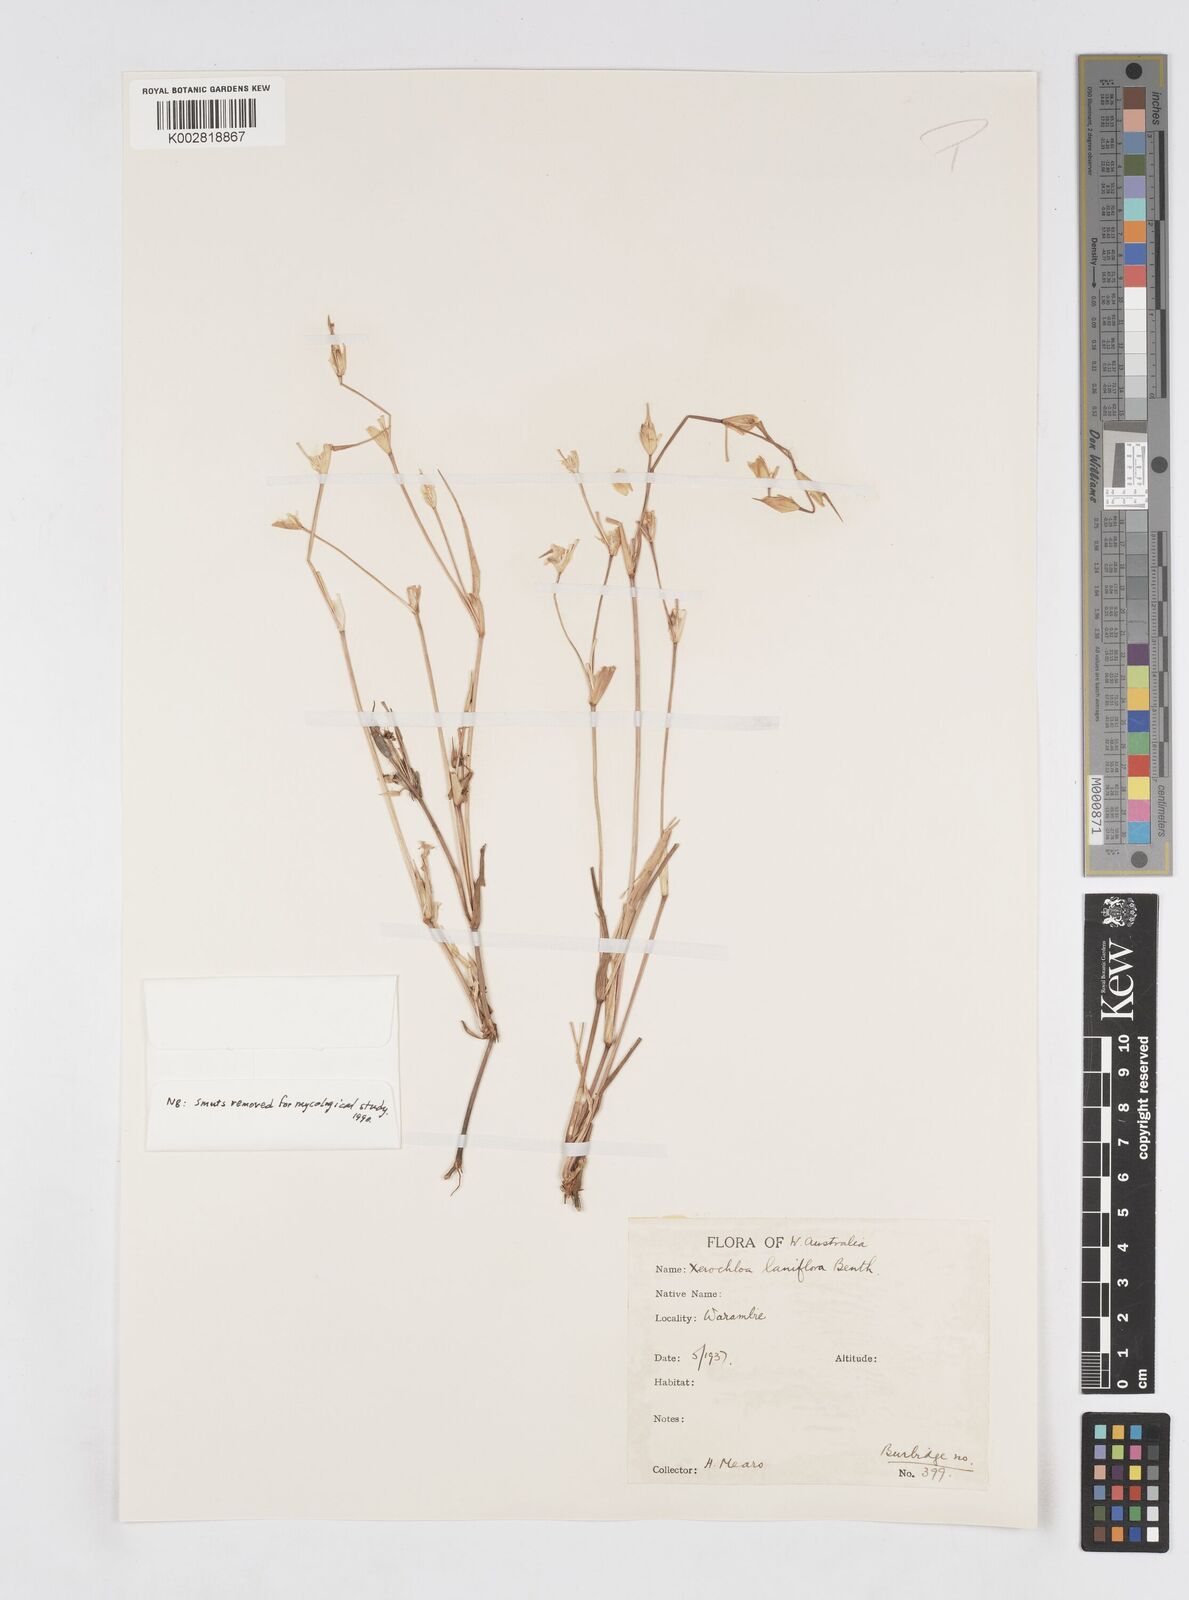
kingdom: Plantae
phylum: Tracheophyta
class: Liliopsida
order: Poales
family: Poaceae
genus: Xerochloa
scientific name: Xerochloa laniflora
